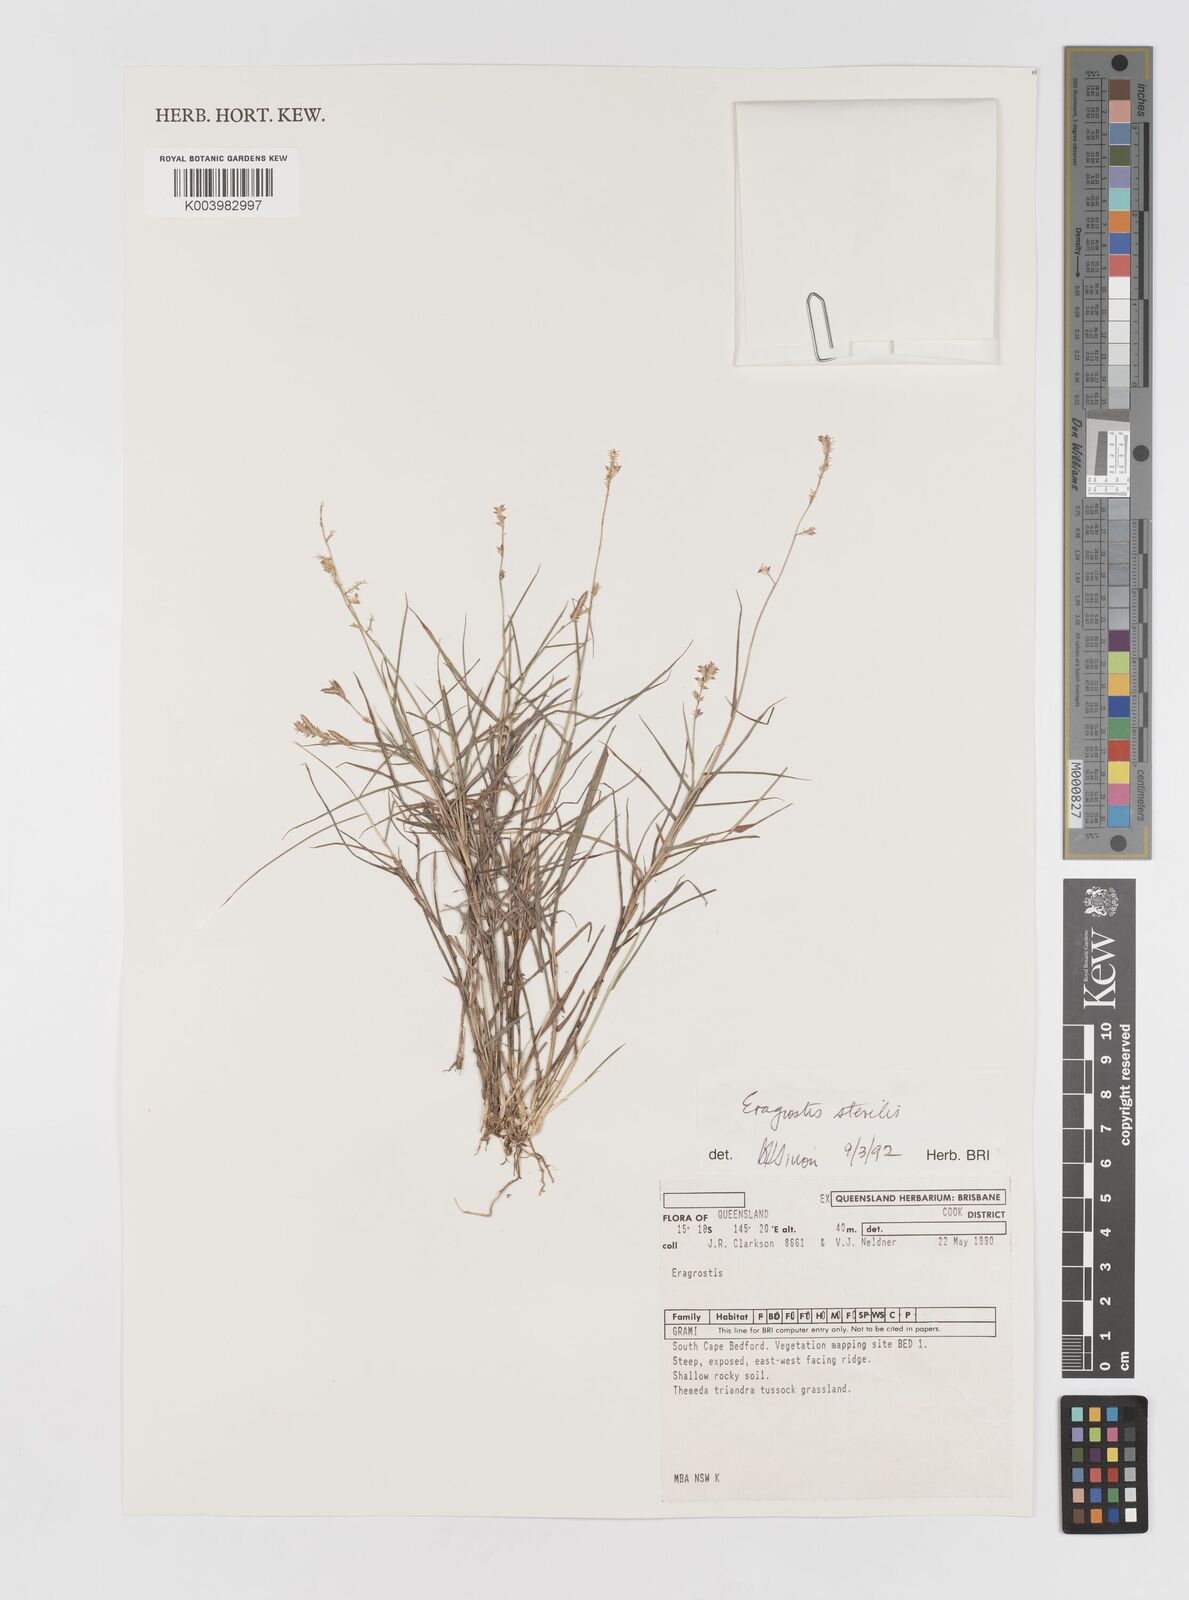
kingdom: Plantae
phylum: Tracheophyta
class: Liliopsida
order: Poales
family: Poaceae
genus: Eragrostis
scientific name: Eragrostis sterilis
